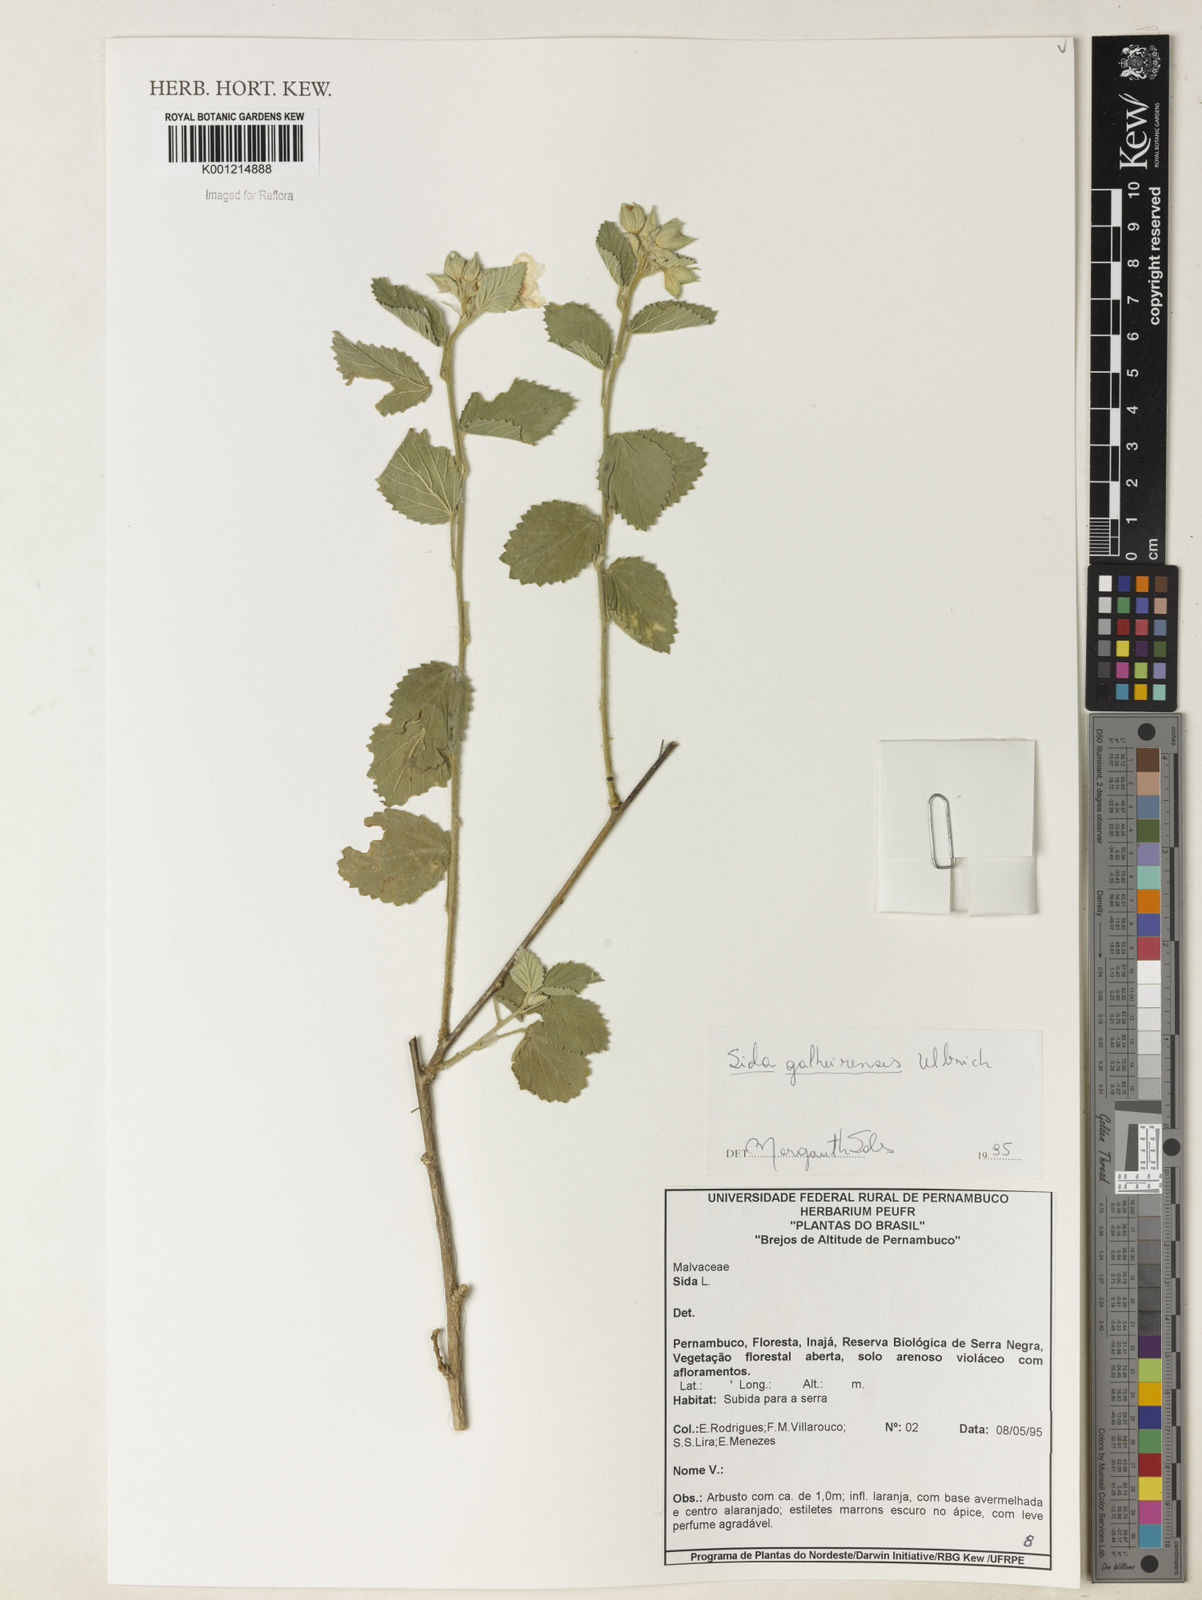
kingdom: Plantae
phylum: Tracheophyta
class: Magnoliopsida
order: Malvales
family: Malvaceae
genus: Sida
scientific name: Sida galheirensis
